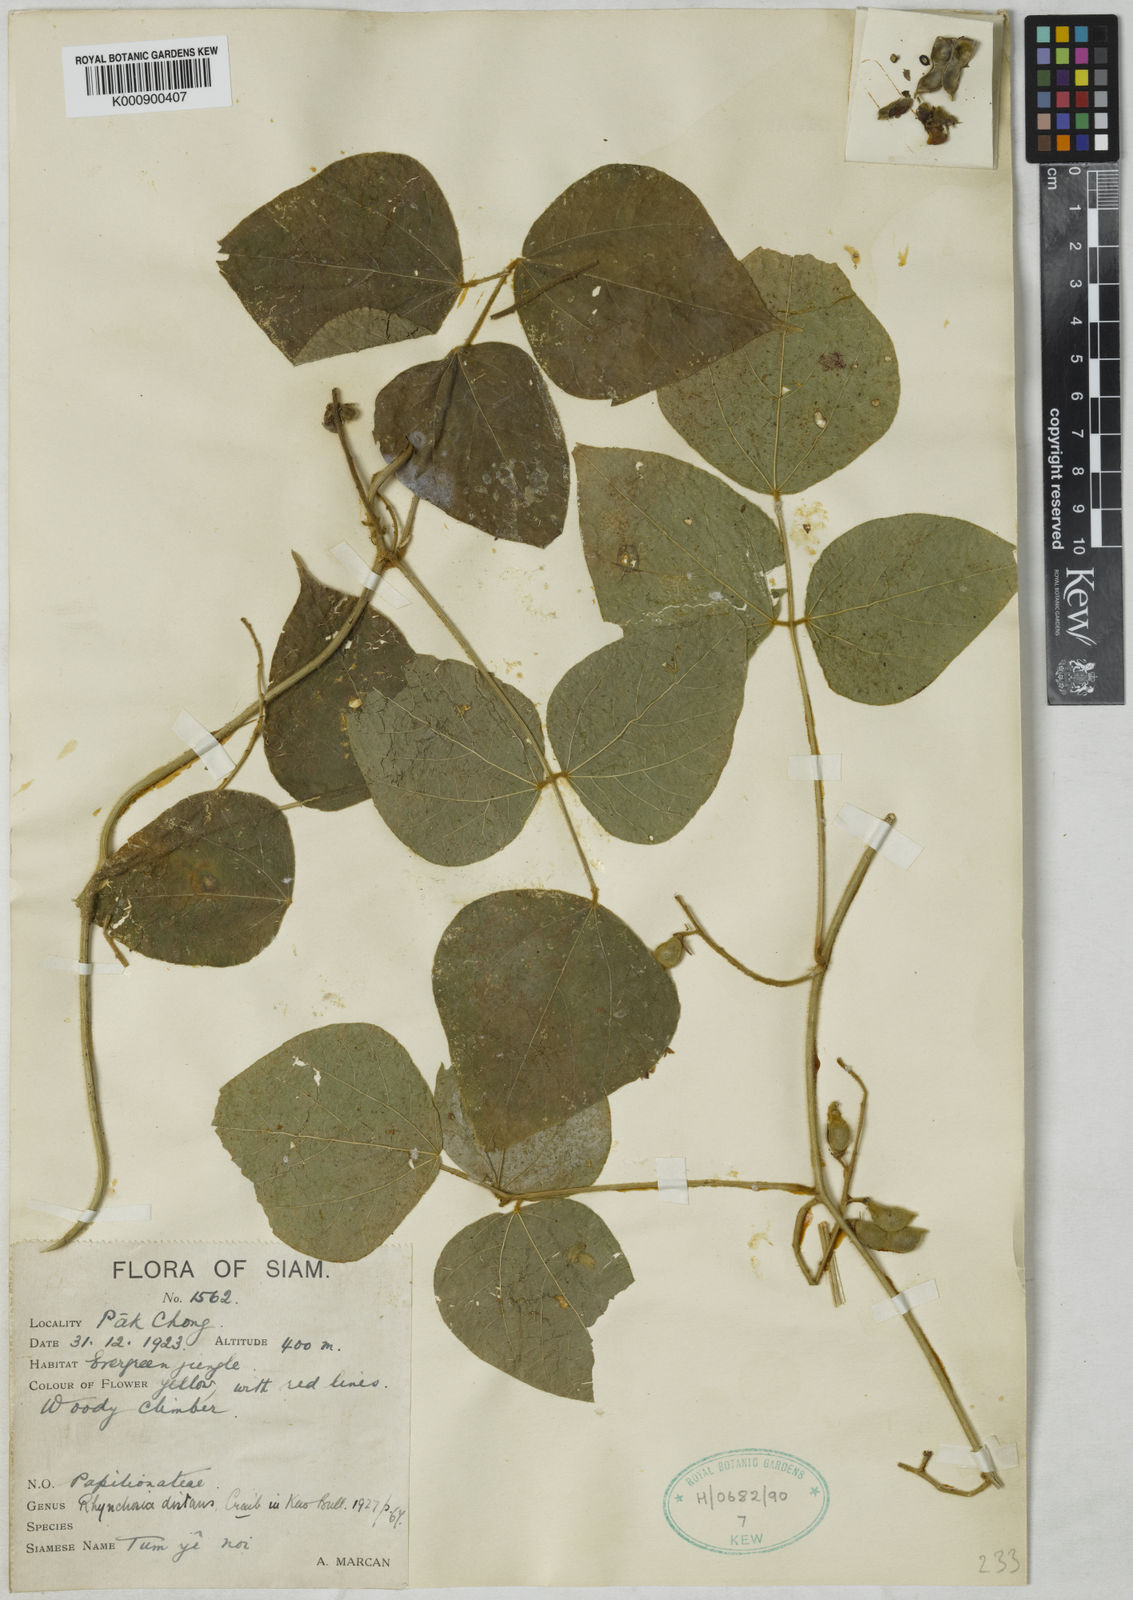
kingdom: Plantae
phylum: Tracheophyta
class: Magnoliopsida
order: Fabales
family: Fabaceae
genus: Rhynchosia
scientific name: Rhynchosia distans
